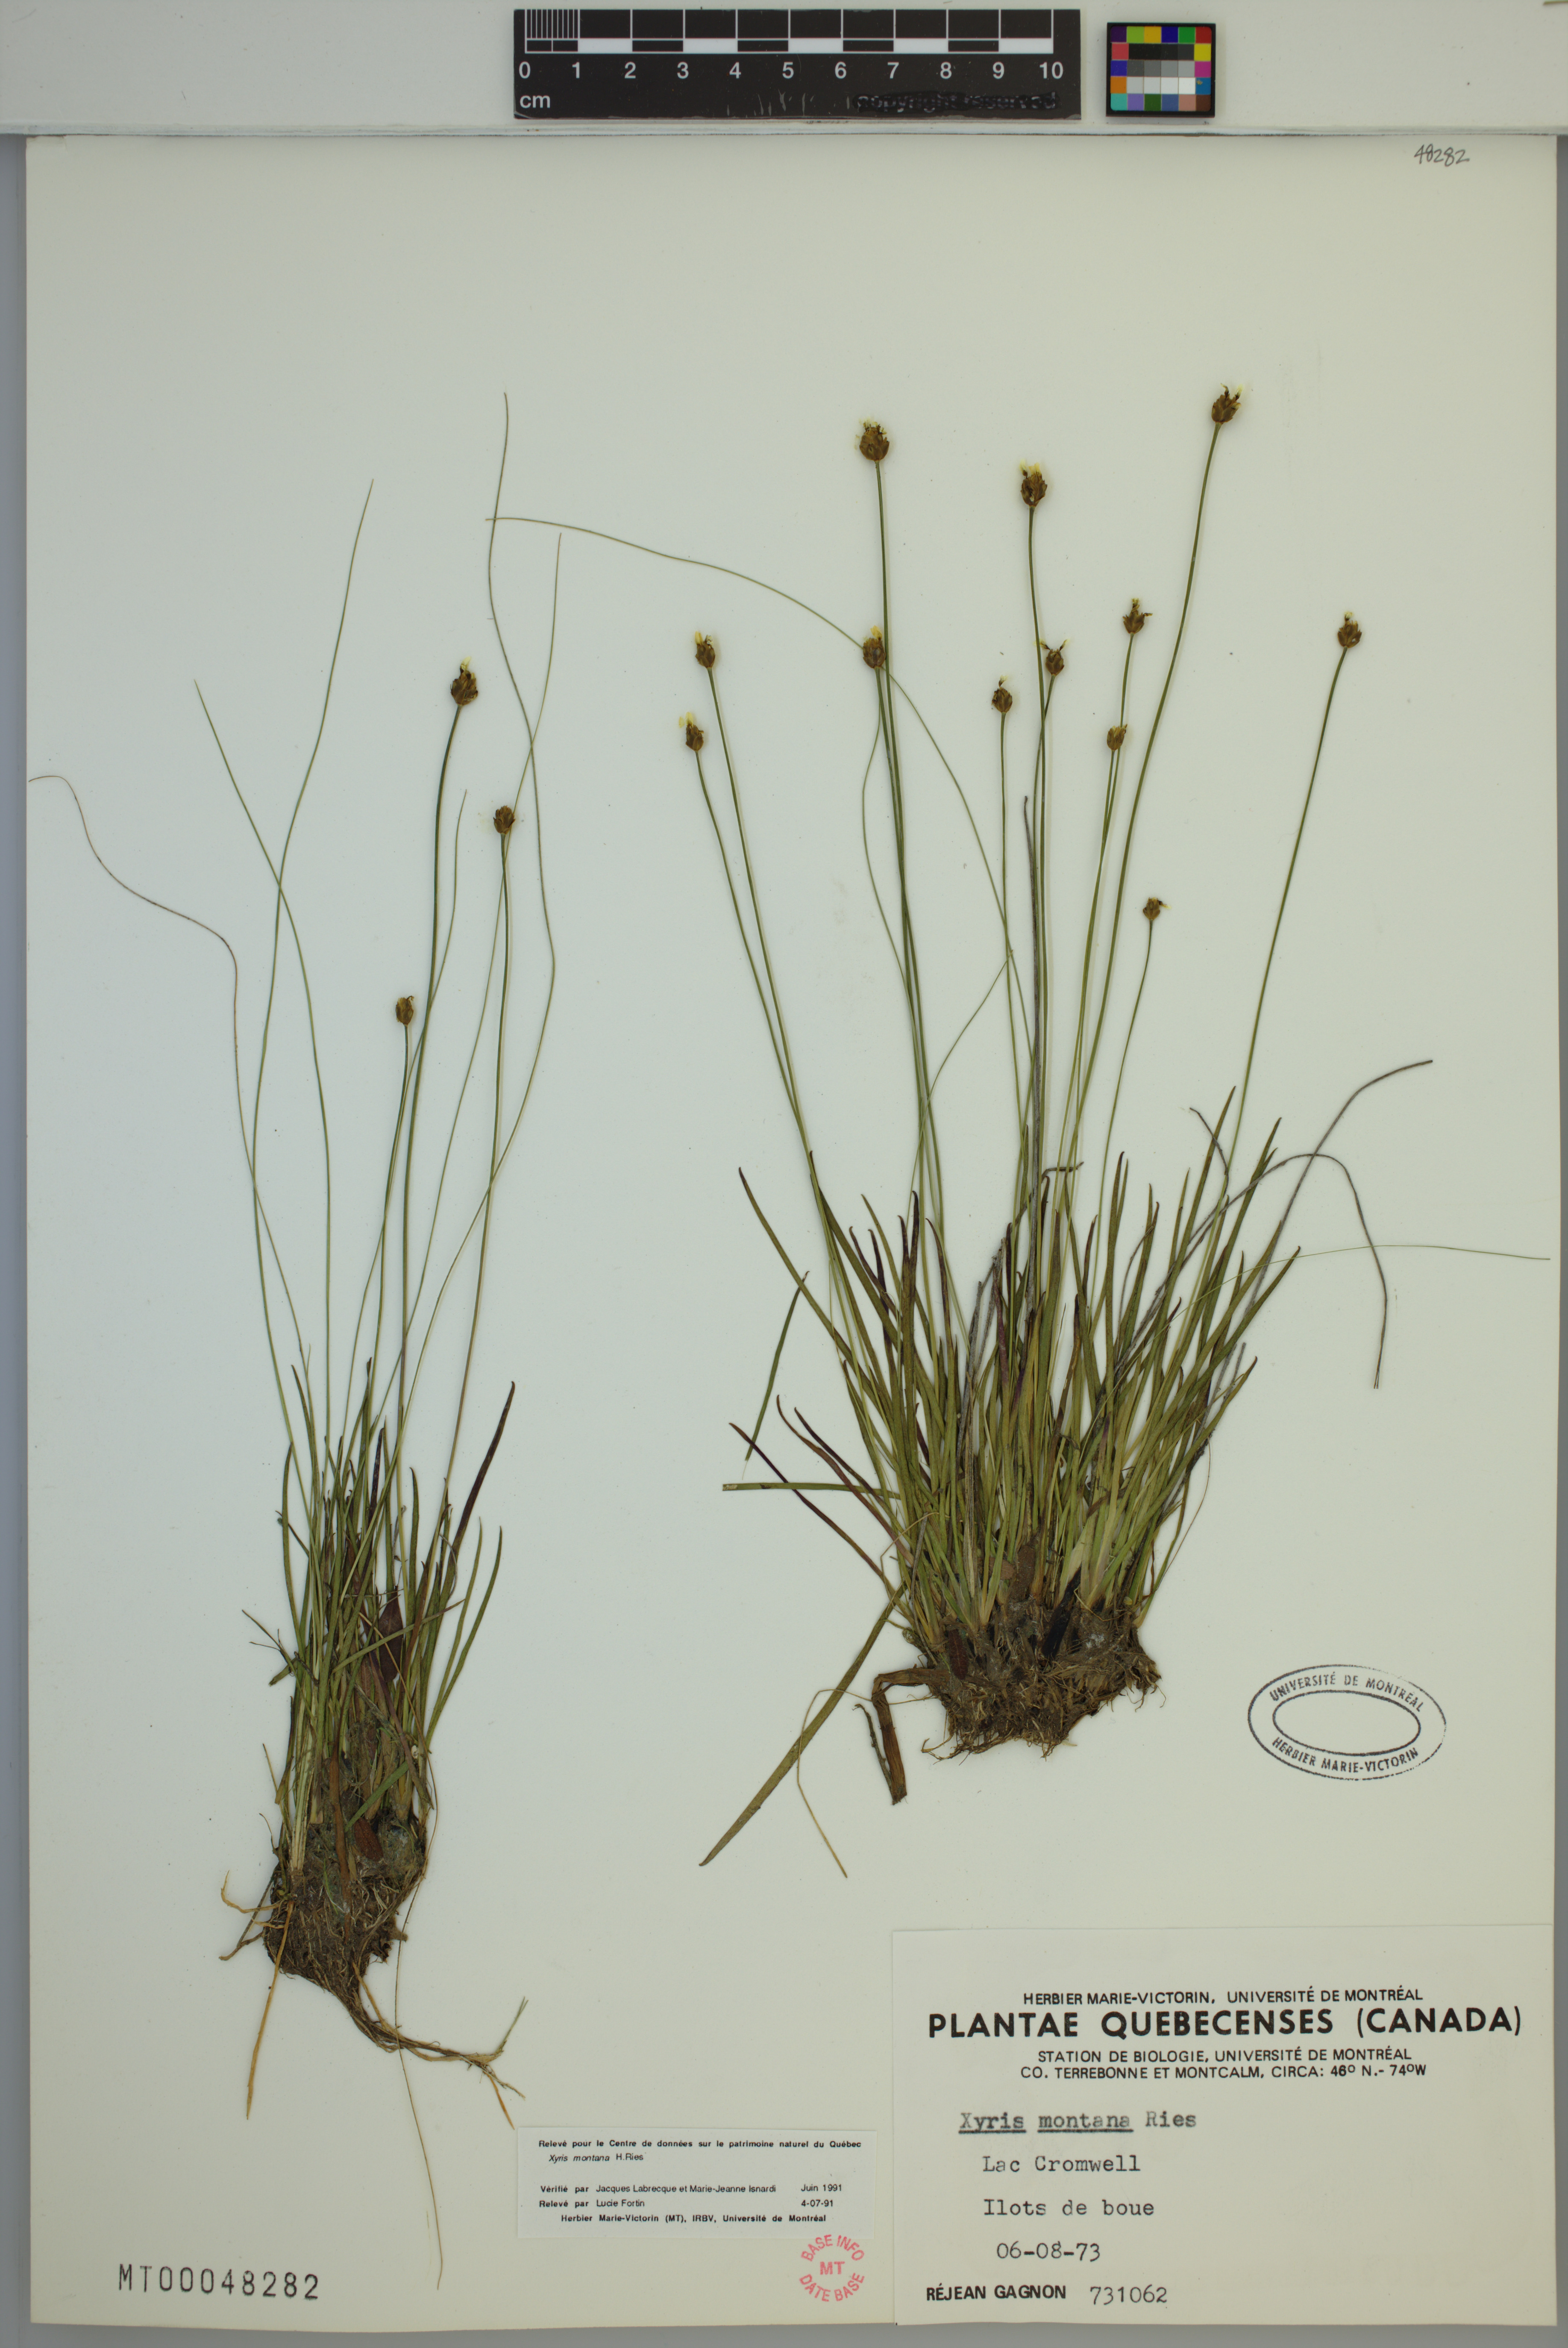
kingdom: Plantae
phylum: Tracheophyta
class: Liliopsida
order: Poales
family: Xyridaceae
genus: Xyris
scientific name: Xyris montana
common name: Northern yellow-eyed-grass
